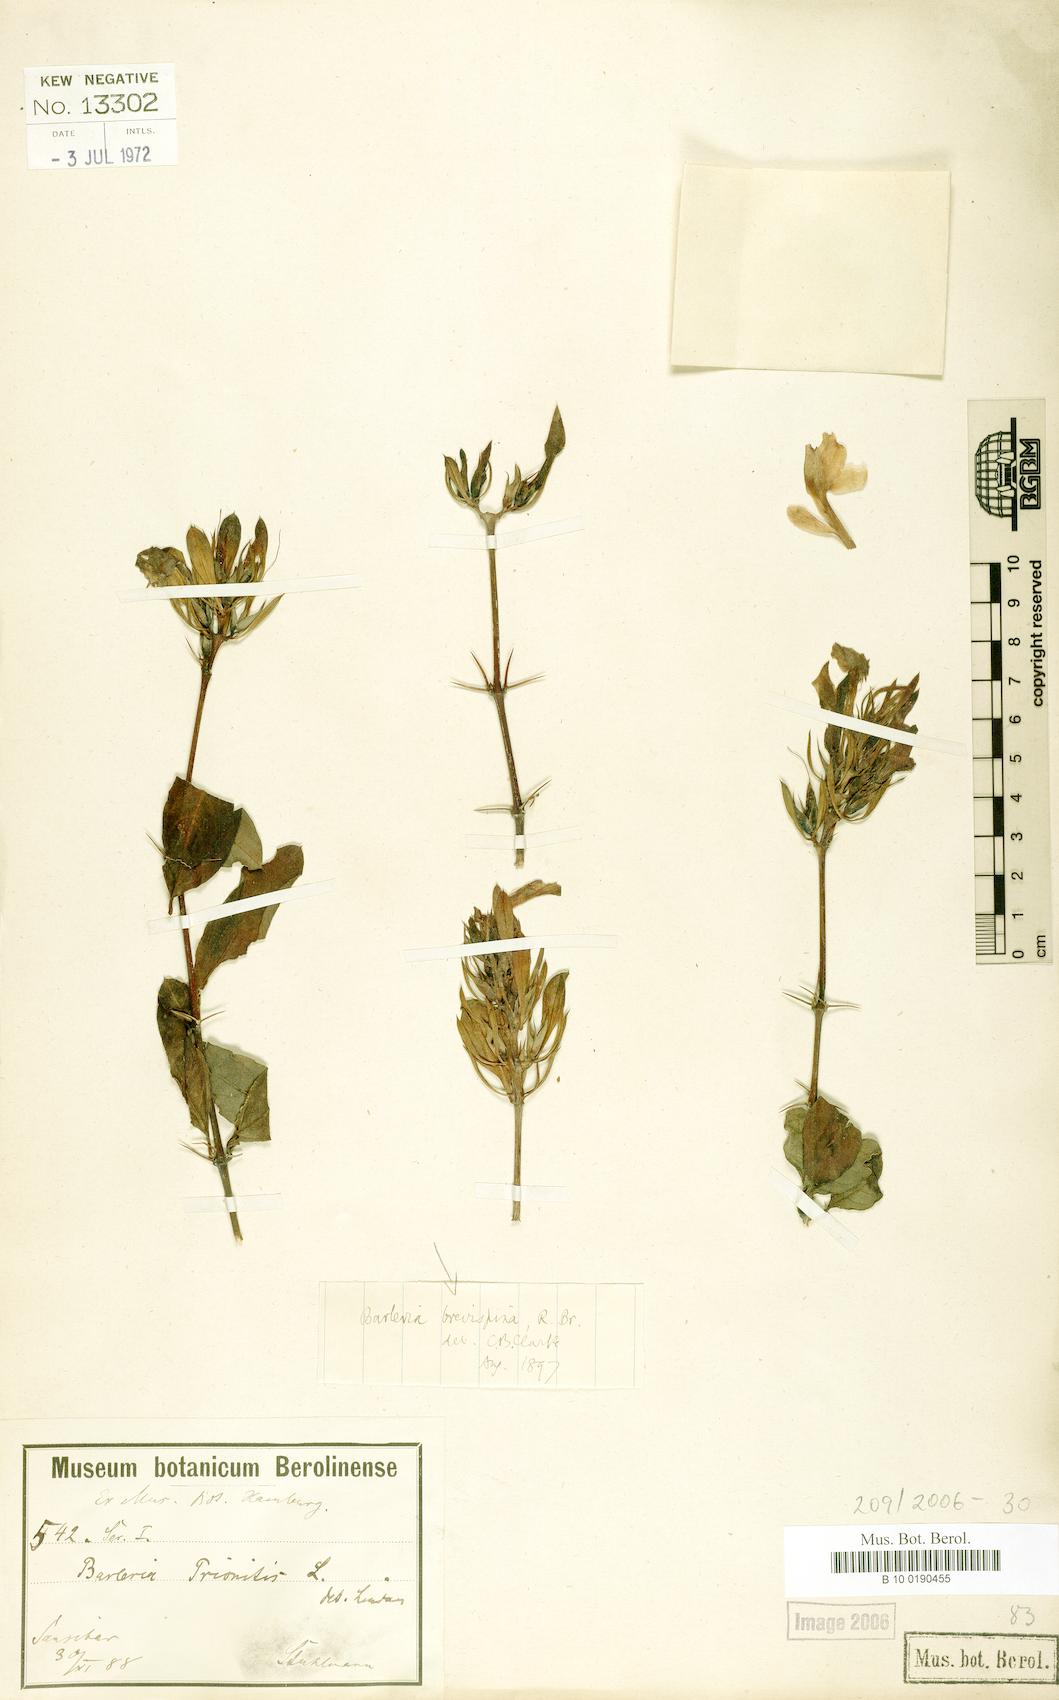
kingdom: Plantae
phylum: Tracheophyta
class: Magnoliopsida
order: Lamiales
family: Acanthaceae
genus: Barleria
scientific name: Barleria quadrispina
